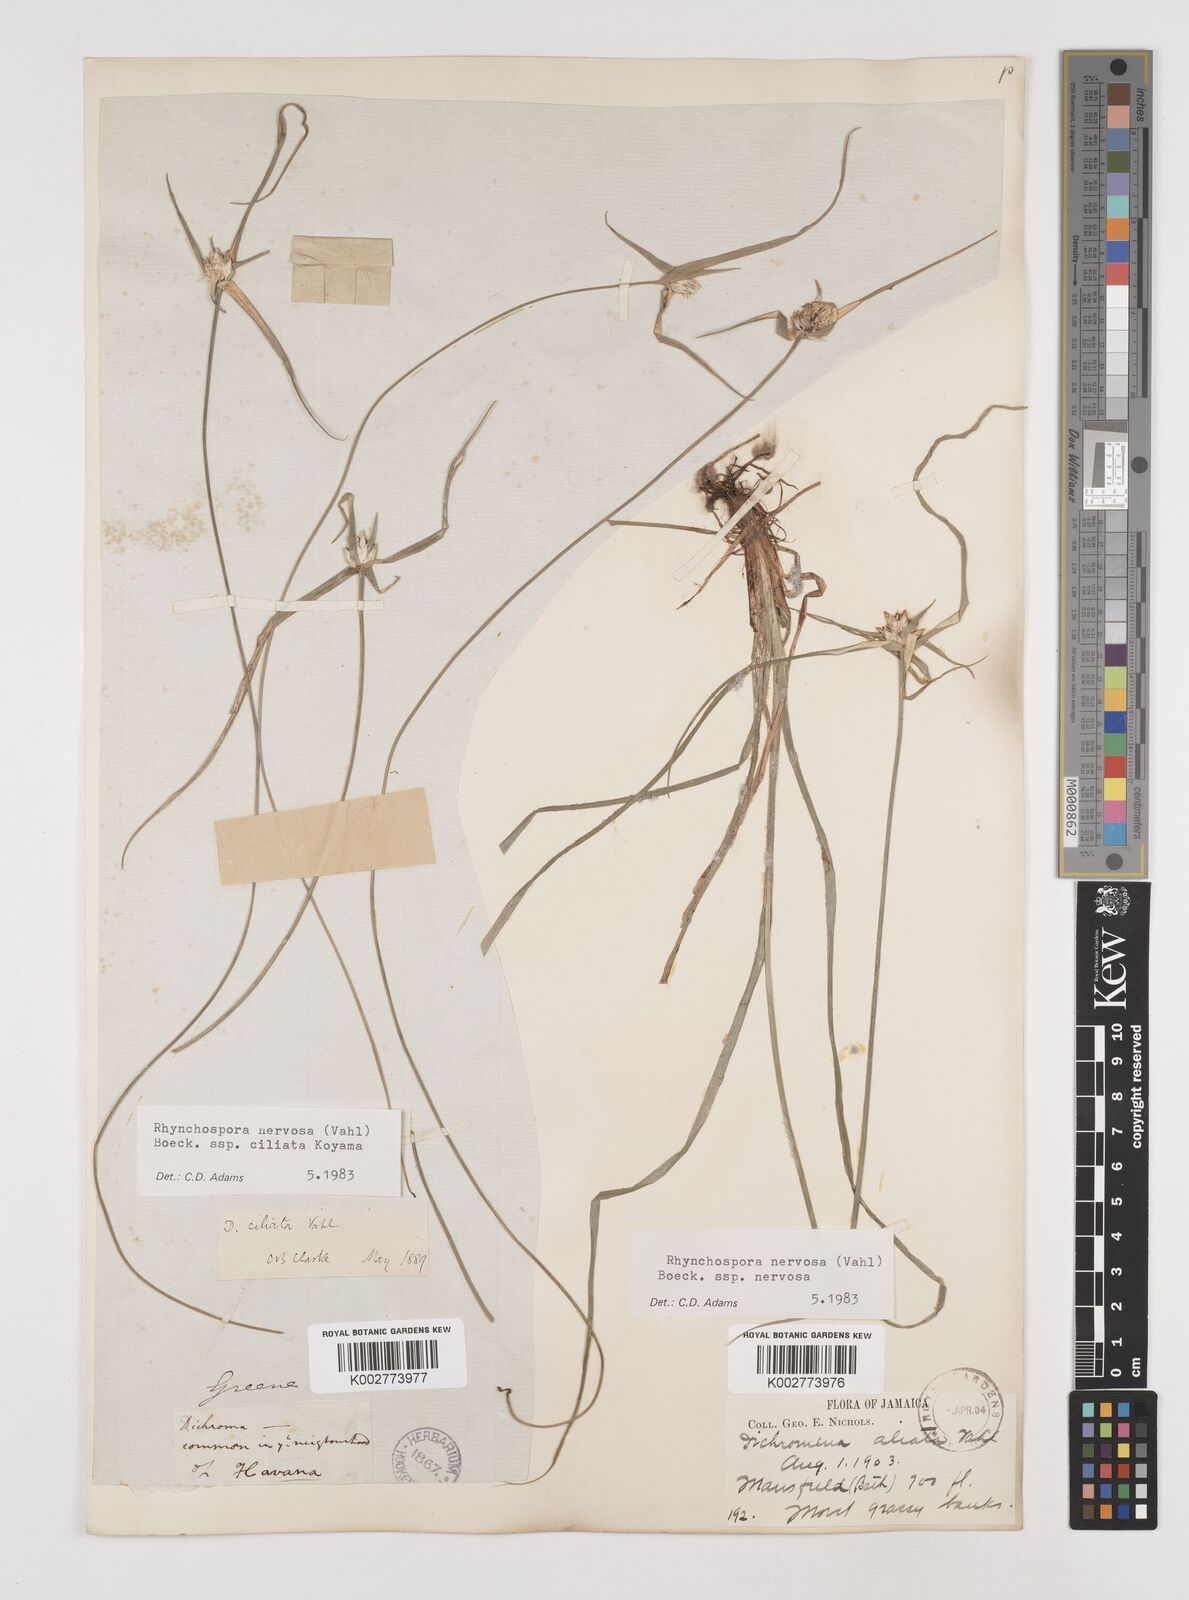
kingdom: Plantae
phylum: Tracheophyta
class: Liliopsida
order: Poales
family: Cyperaceae
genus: Rhynchospora
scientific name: Rhynchospora pura
